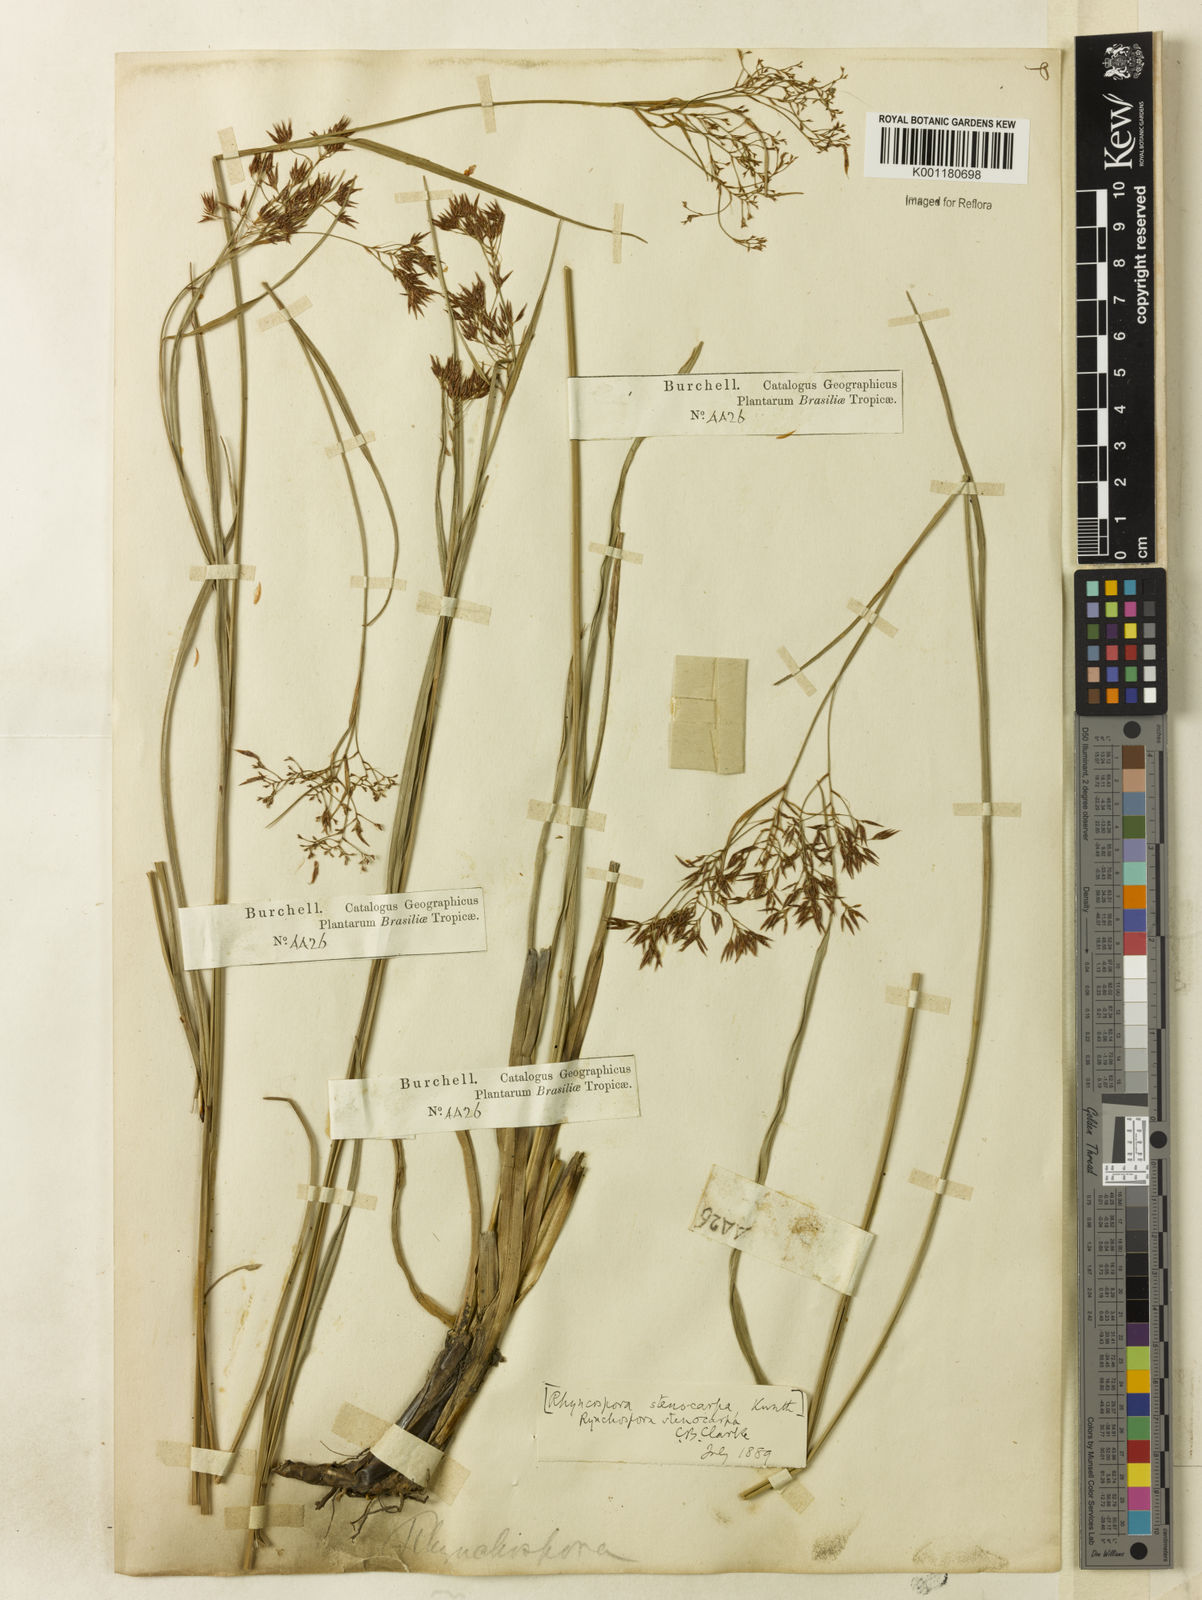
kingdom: Plantae
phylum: Tracheophyta
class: Liliopsida
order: Poales
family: Cyperaceae
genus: Rhynchospora
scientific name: Rhynchospora stenocarpa
